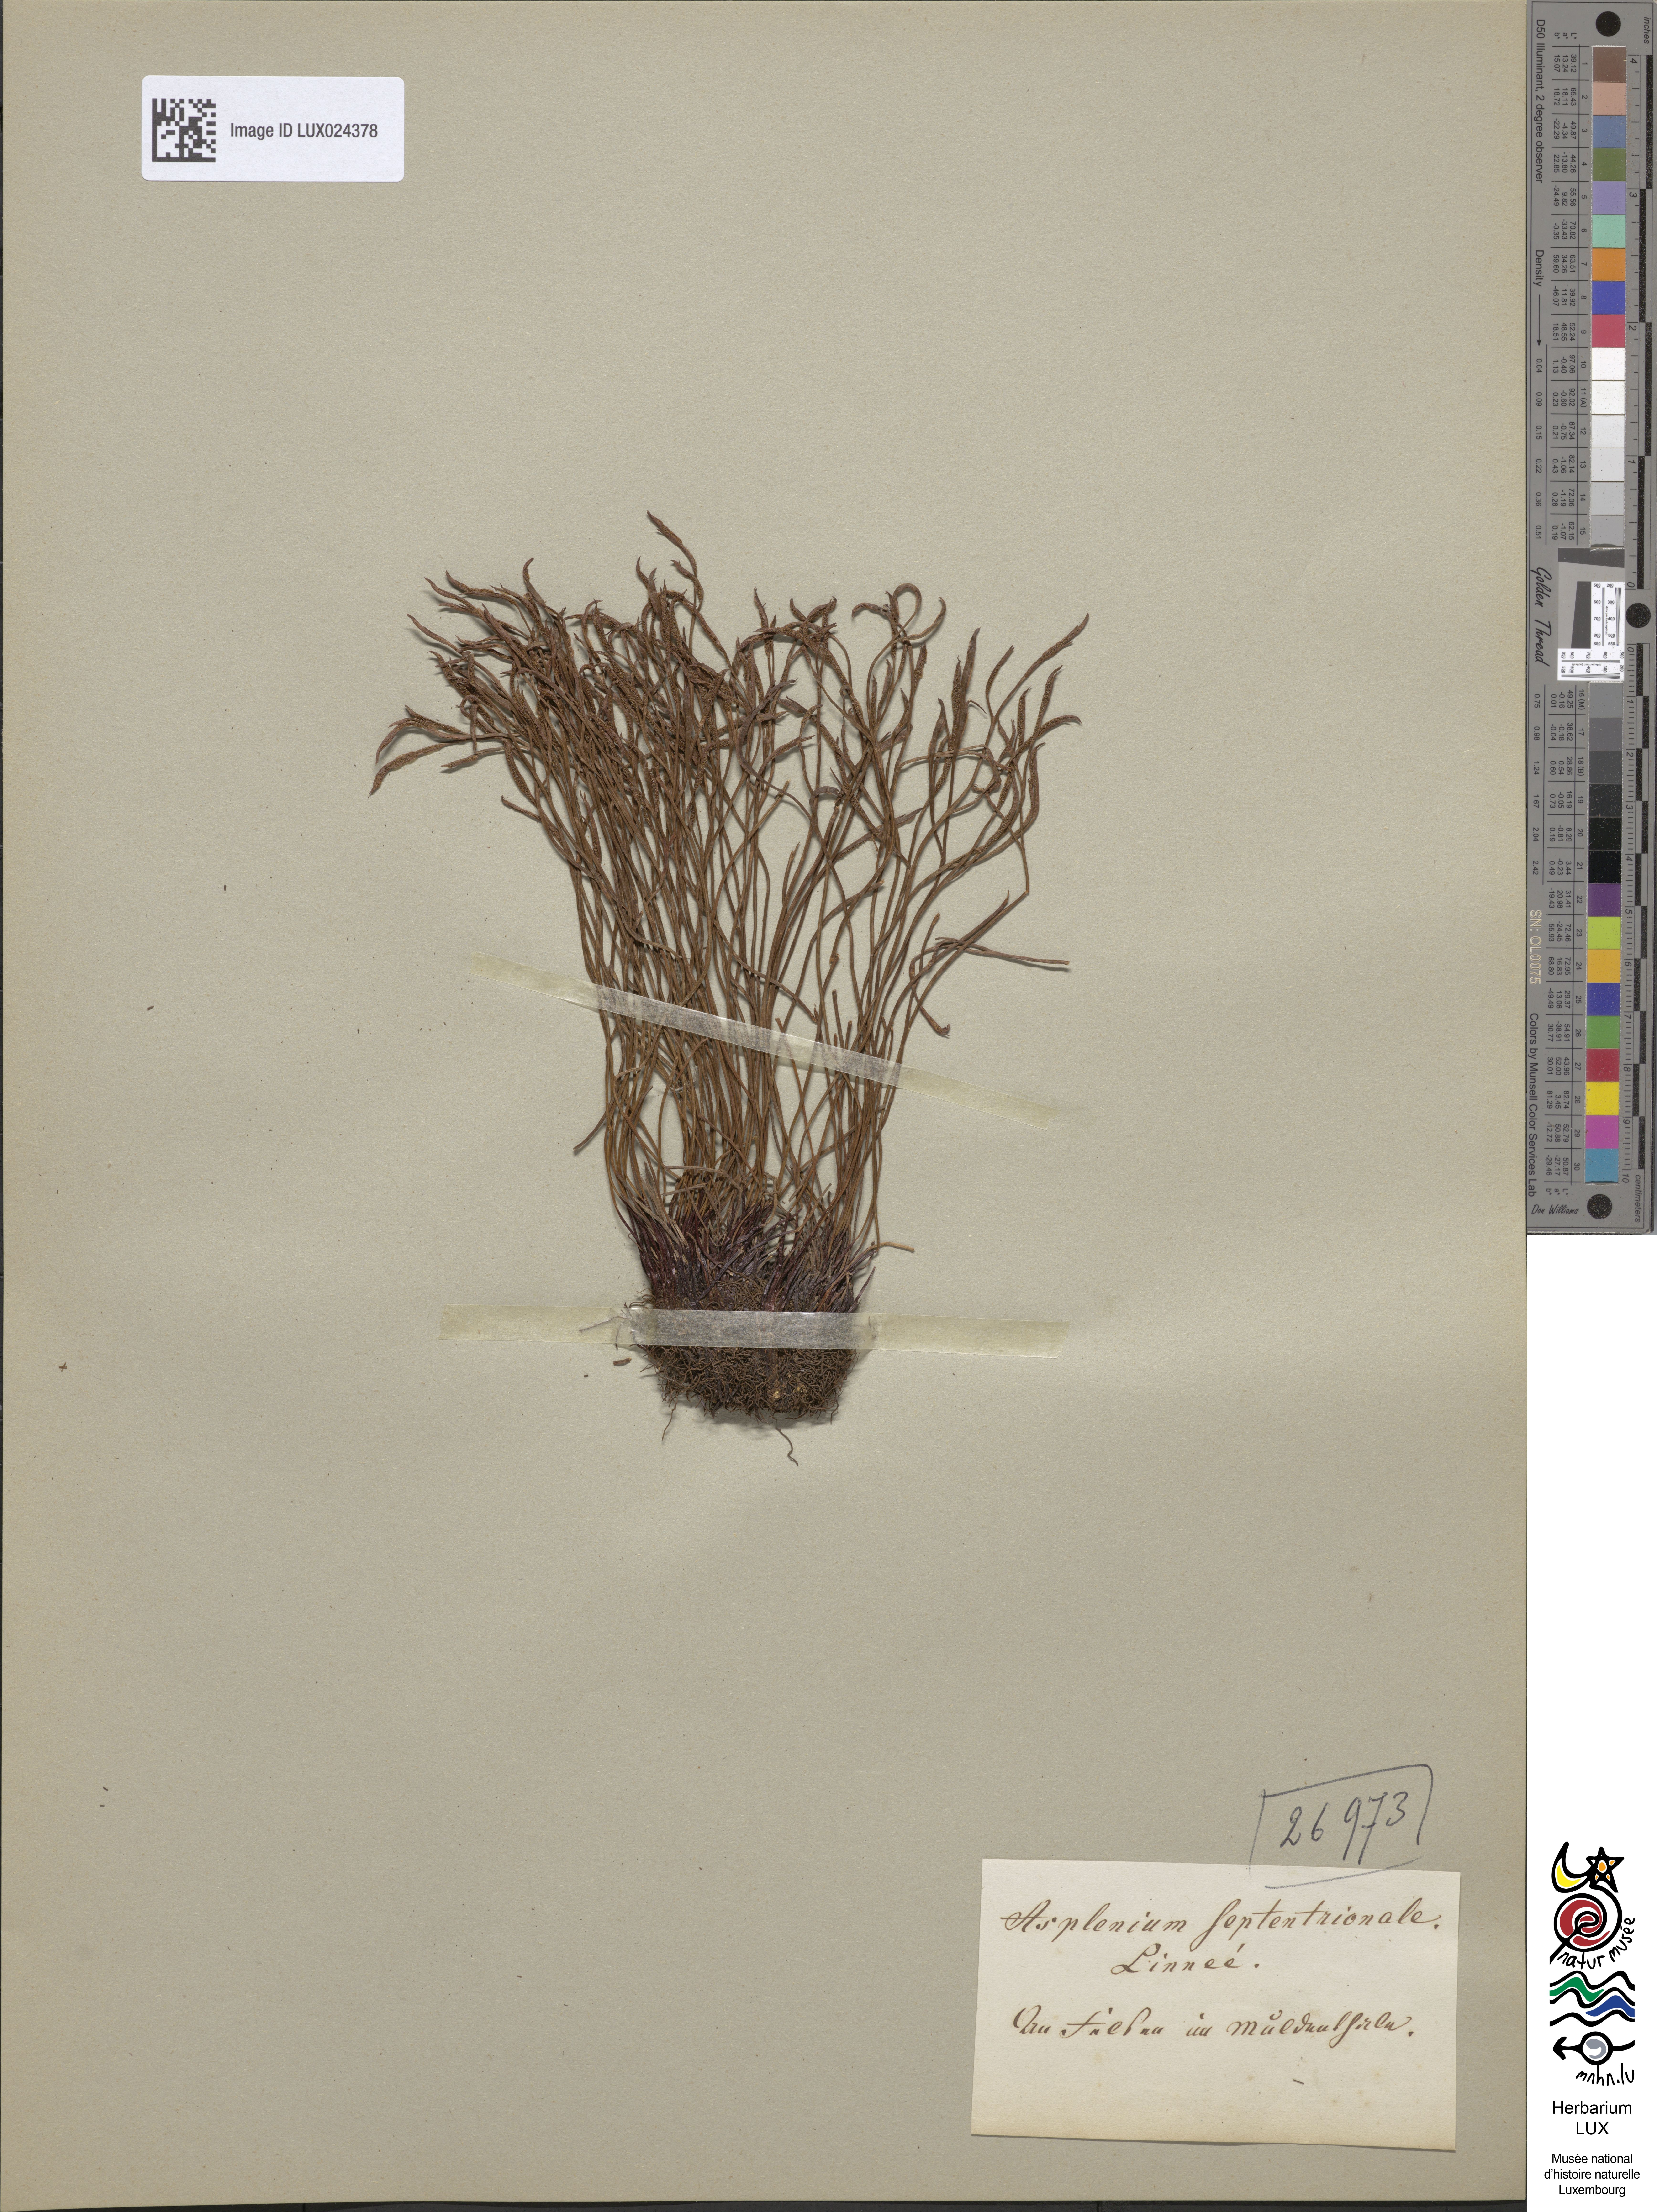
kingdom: Plantae
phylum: Tracheophyta
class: Polypodiopsida
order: Polypodiales
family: Aspleniaceae
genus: Asplenium
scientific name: Asplenium septentrionale
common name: Forked spleenwort
